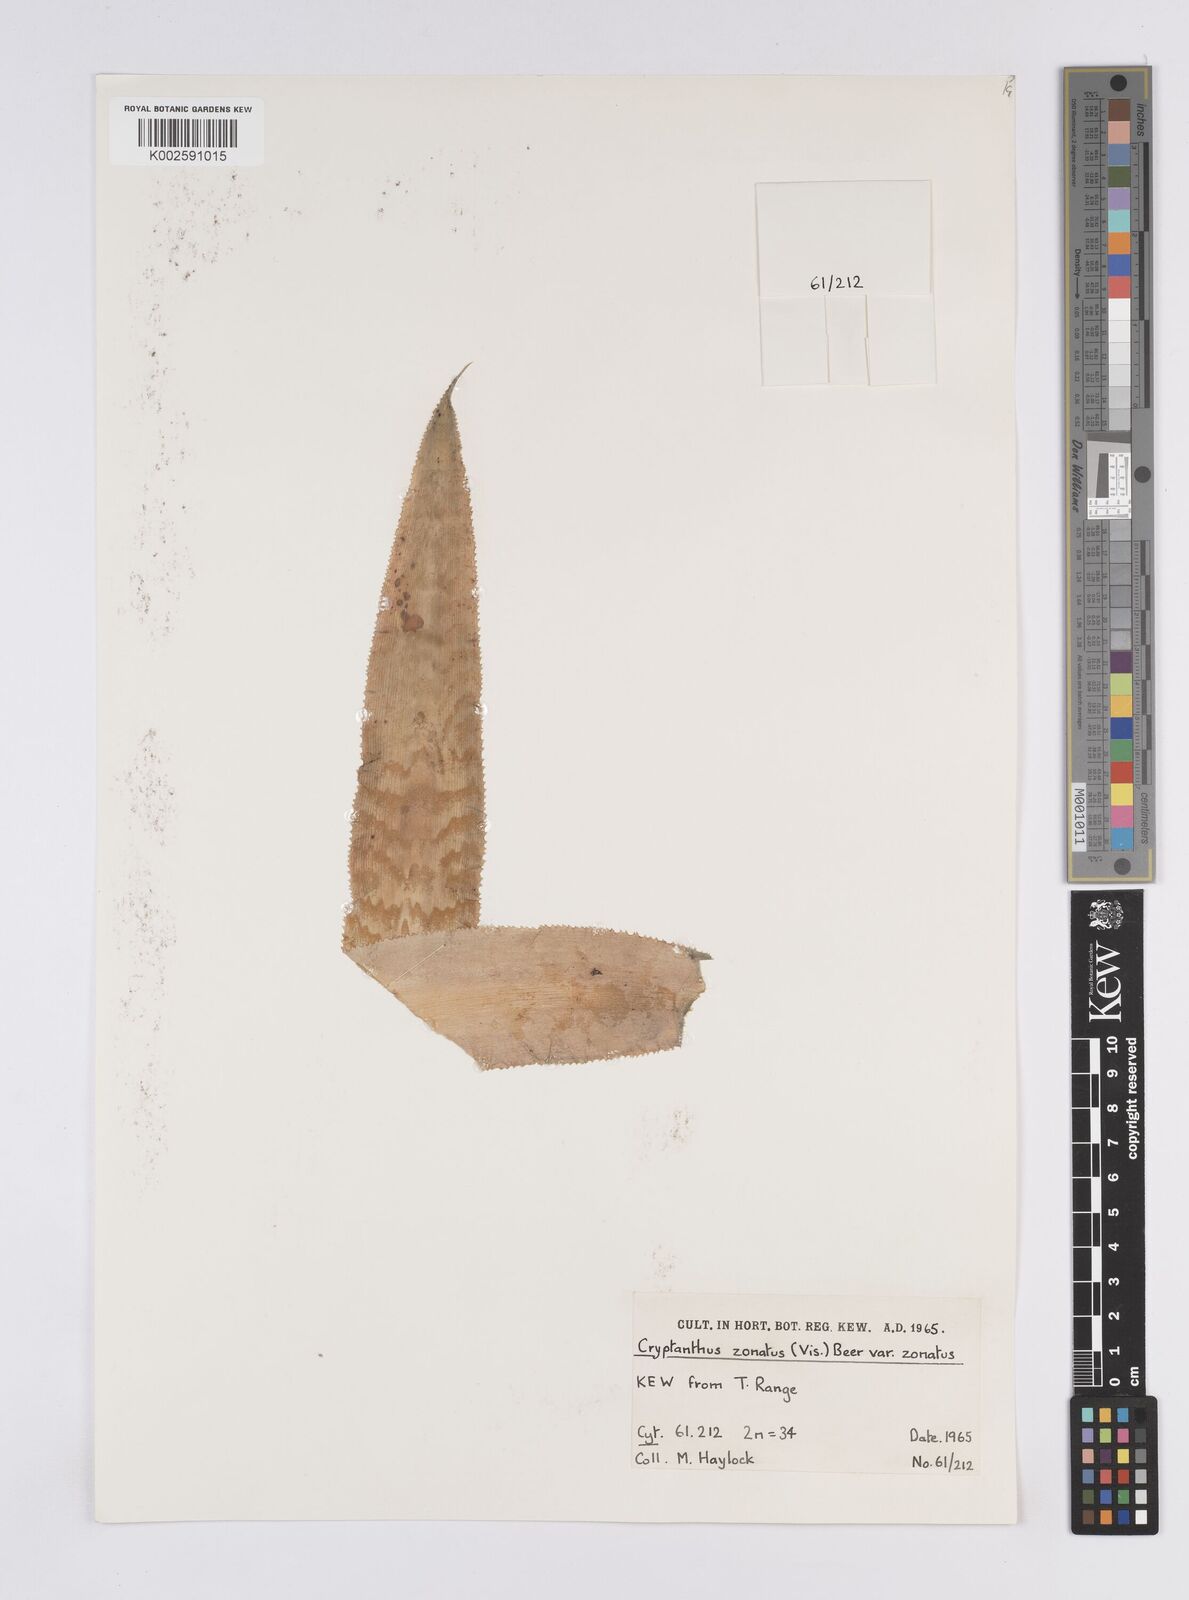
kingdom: Plantae
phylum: Tracheophyta
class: Liliopsida
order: Poales
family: Bromeliaceae
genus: Cryptanthus
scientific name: Cryptanthus zonatus
